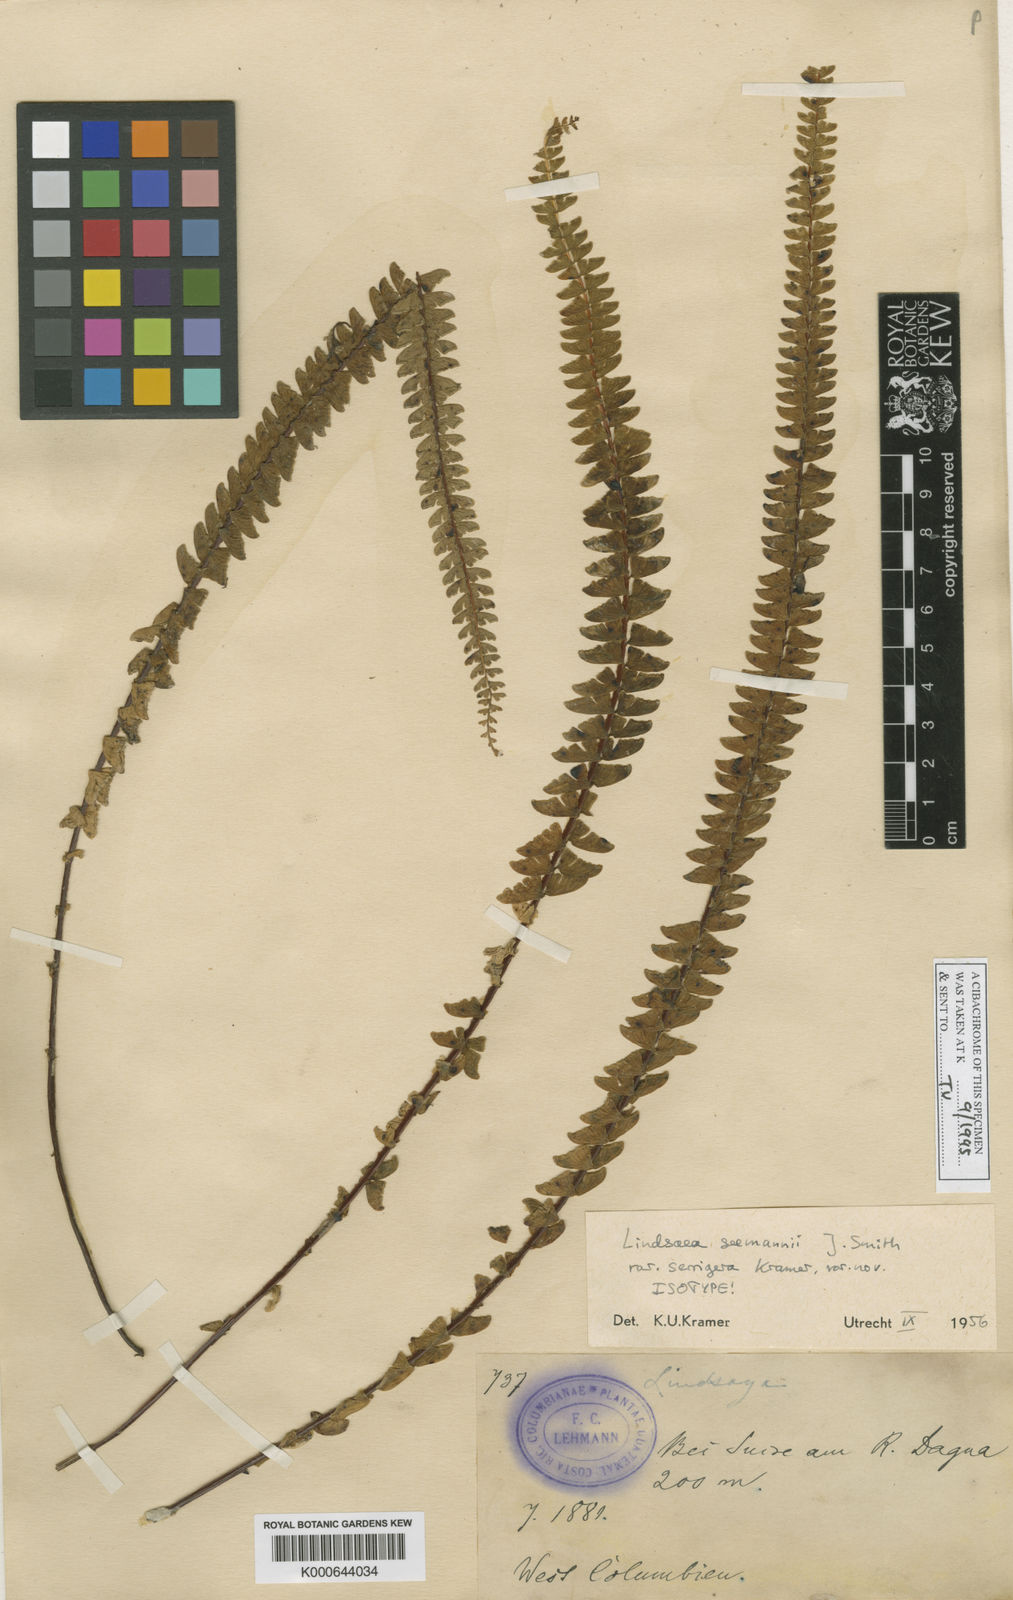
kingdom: Plantae
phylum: Tracheophyta
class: Polypodiopsida
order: Polypodiales
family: Lindsaeaceae
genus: Lindsaea
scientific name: Lindsaea seemannii
